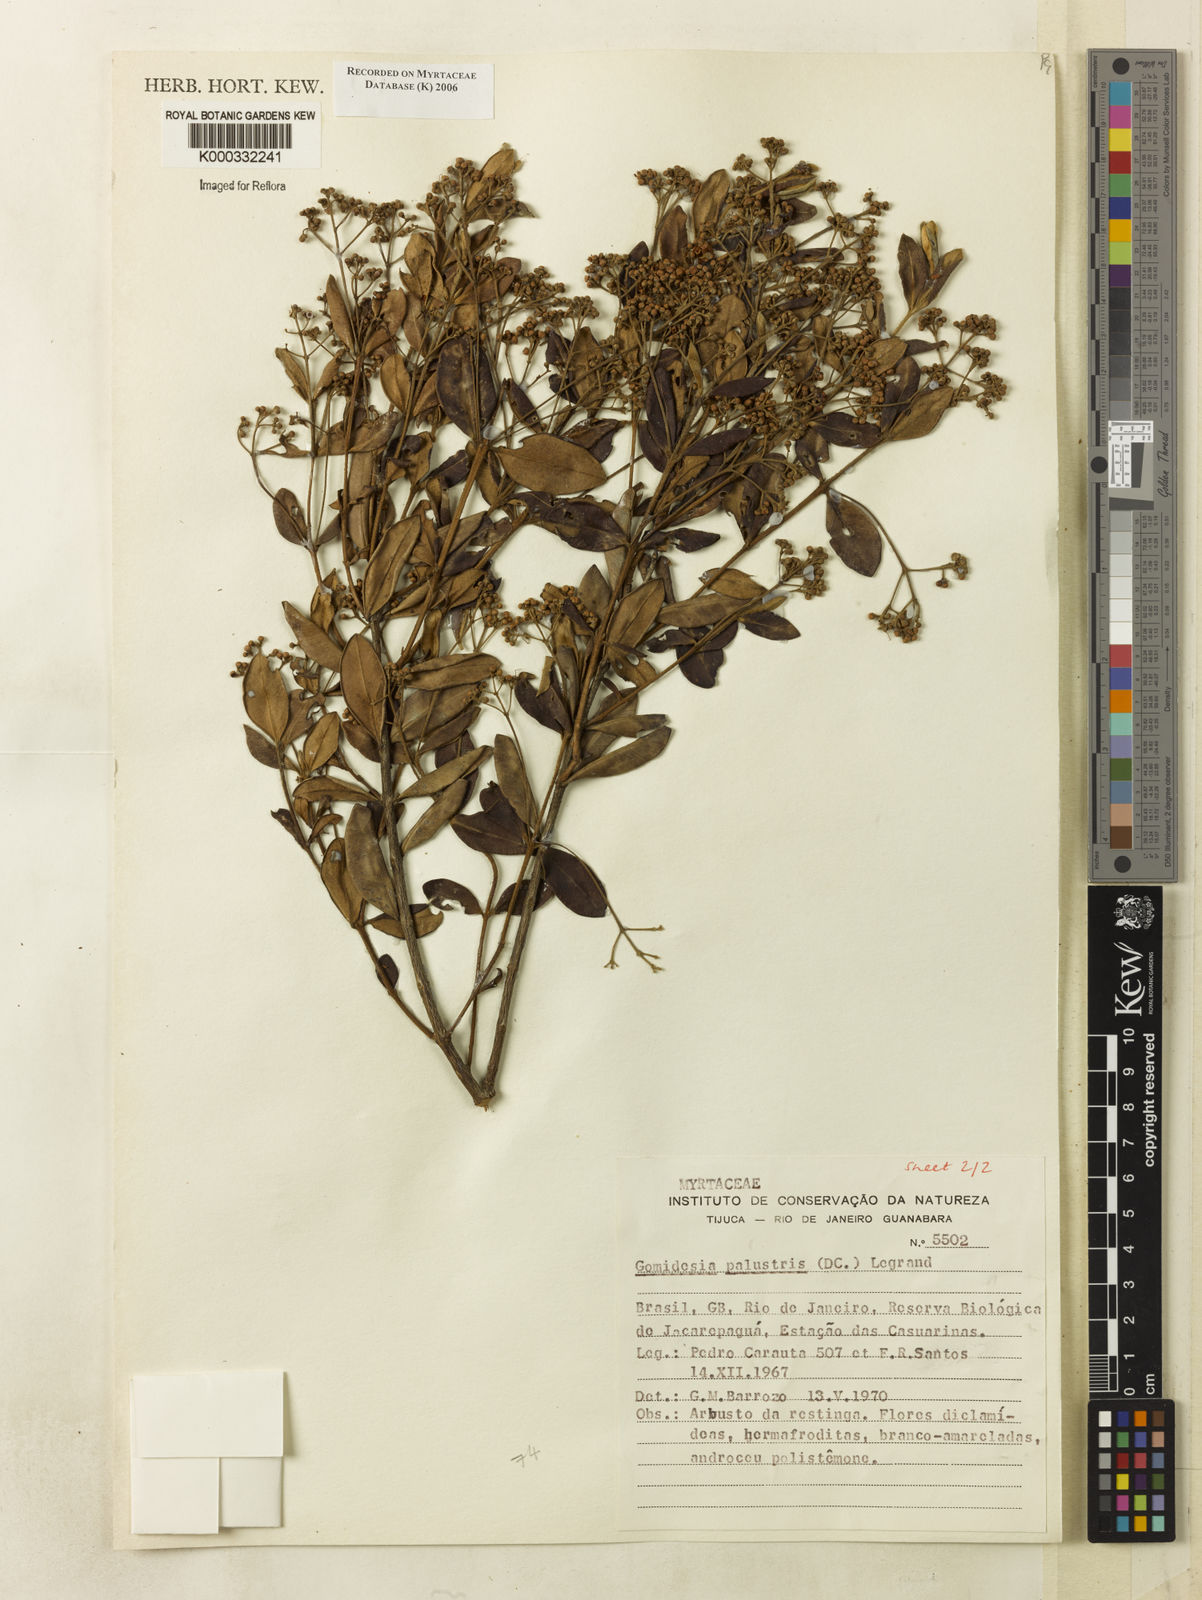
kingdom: Plantae
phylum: Tracheophyta
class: Magnoliopsida
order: Myrtales
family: Myrtaceae
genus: Myrcia
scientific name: Myrcia palustris
